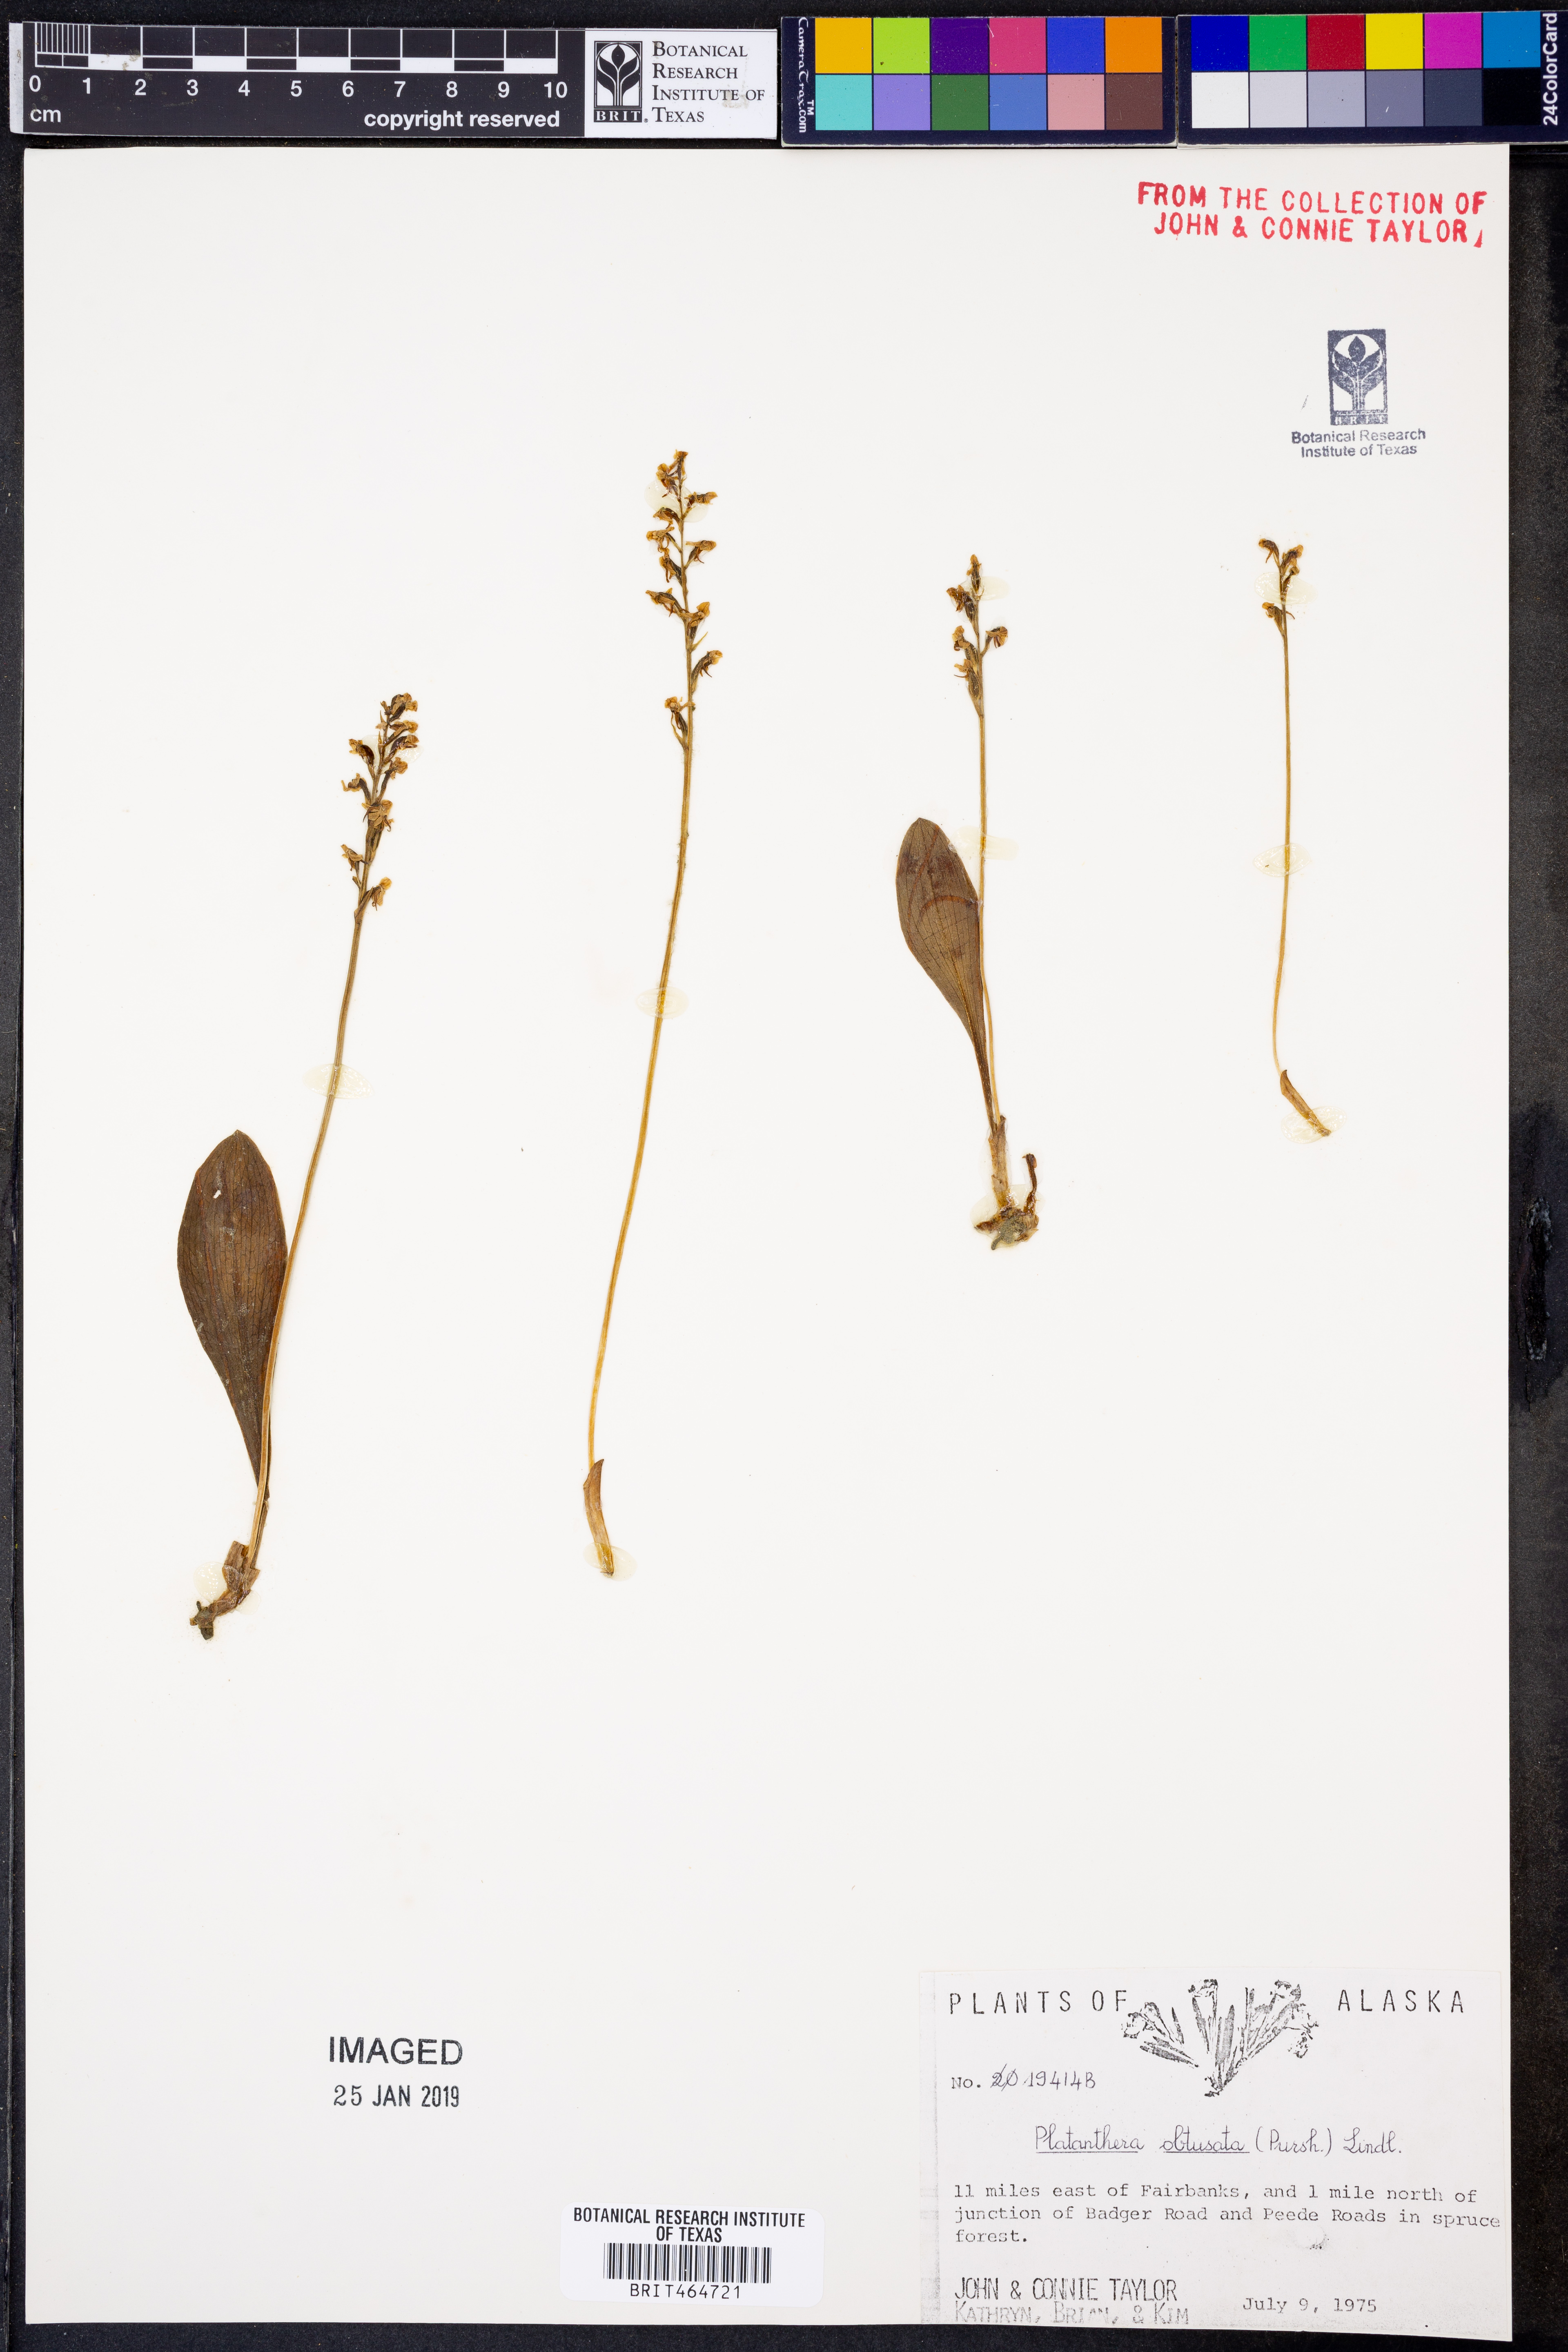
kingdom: Plantae
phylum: Tracheophyta
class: Liliopsida
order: Asparagales
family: Orchidaceae
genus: Platanthera
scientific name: Platanthera obtusata
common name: Blunt bog orchid
